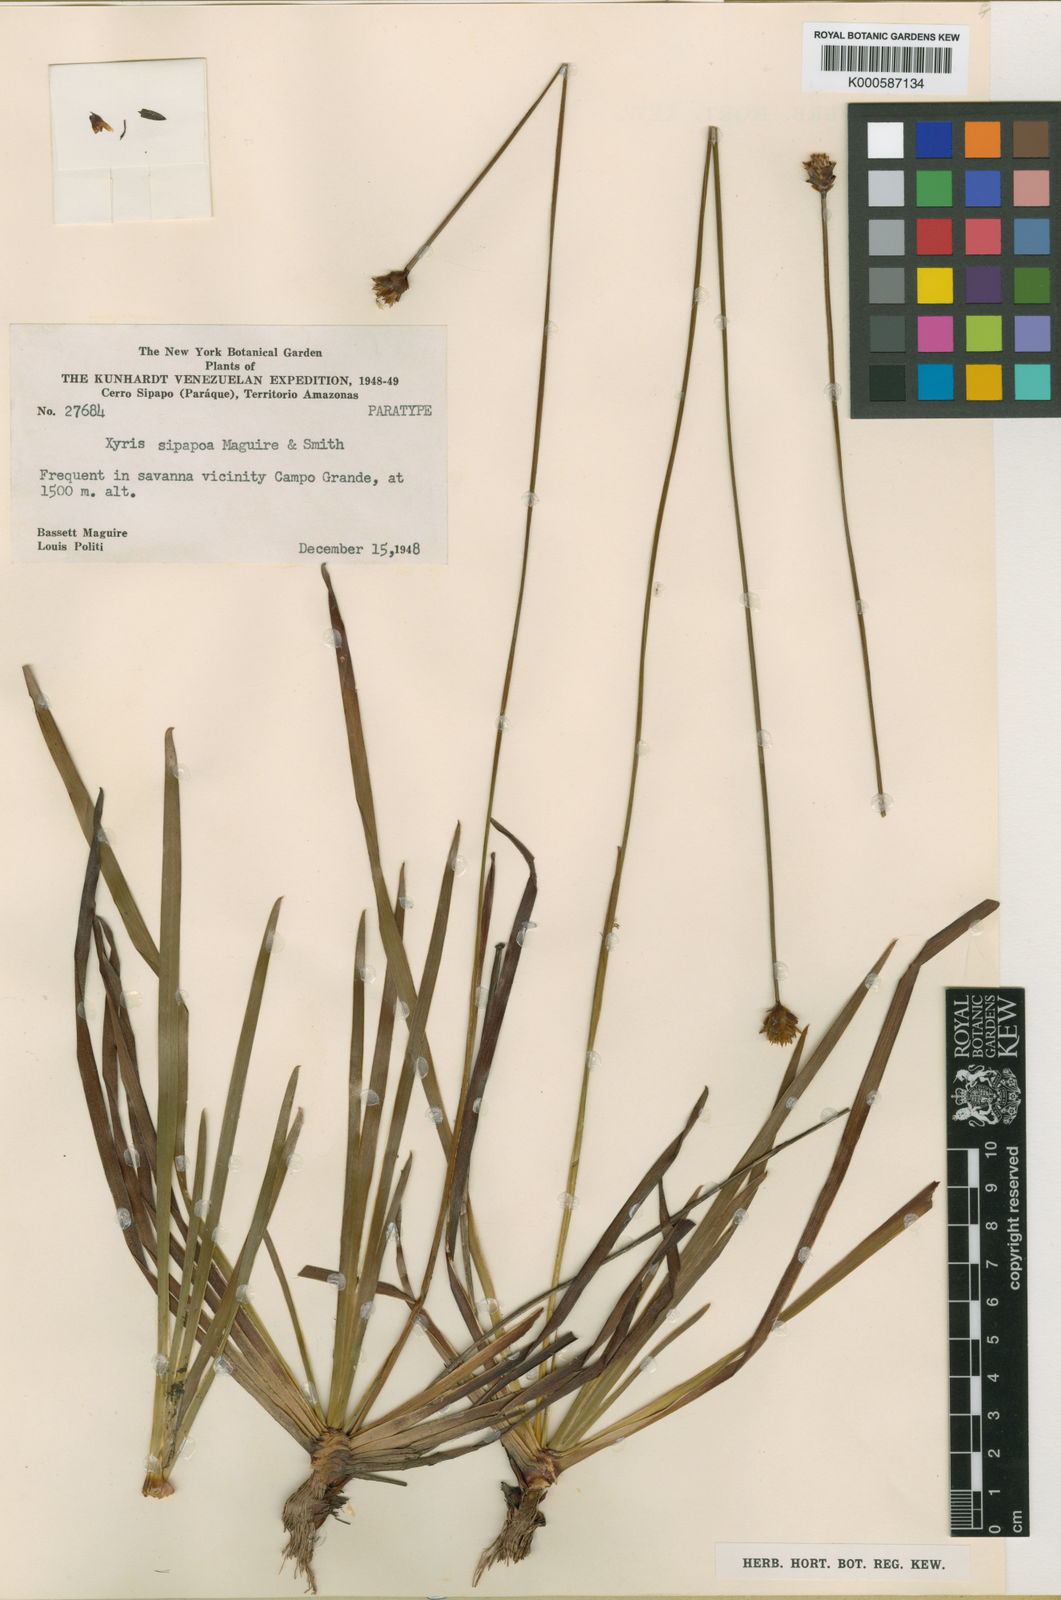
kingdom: Plantae
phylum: Tracheophyta
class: Liliopsida
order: Poales
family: Xyridaceae
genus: Xyris
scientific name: Xyris thysanolepis
